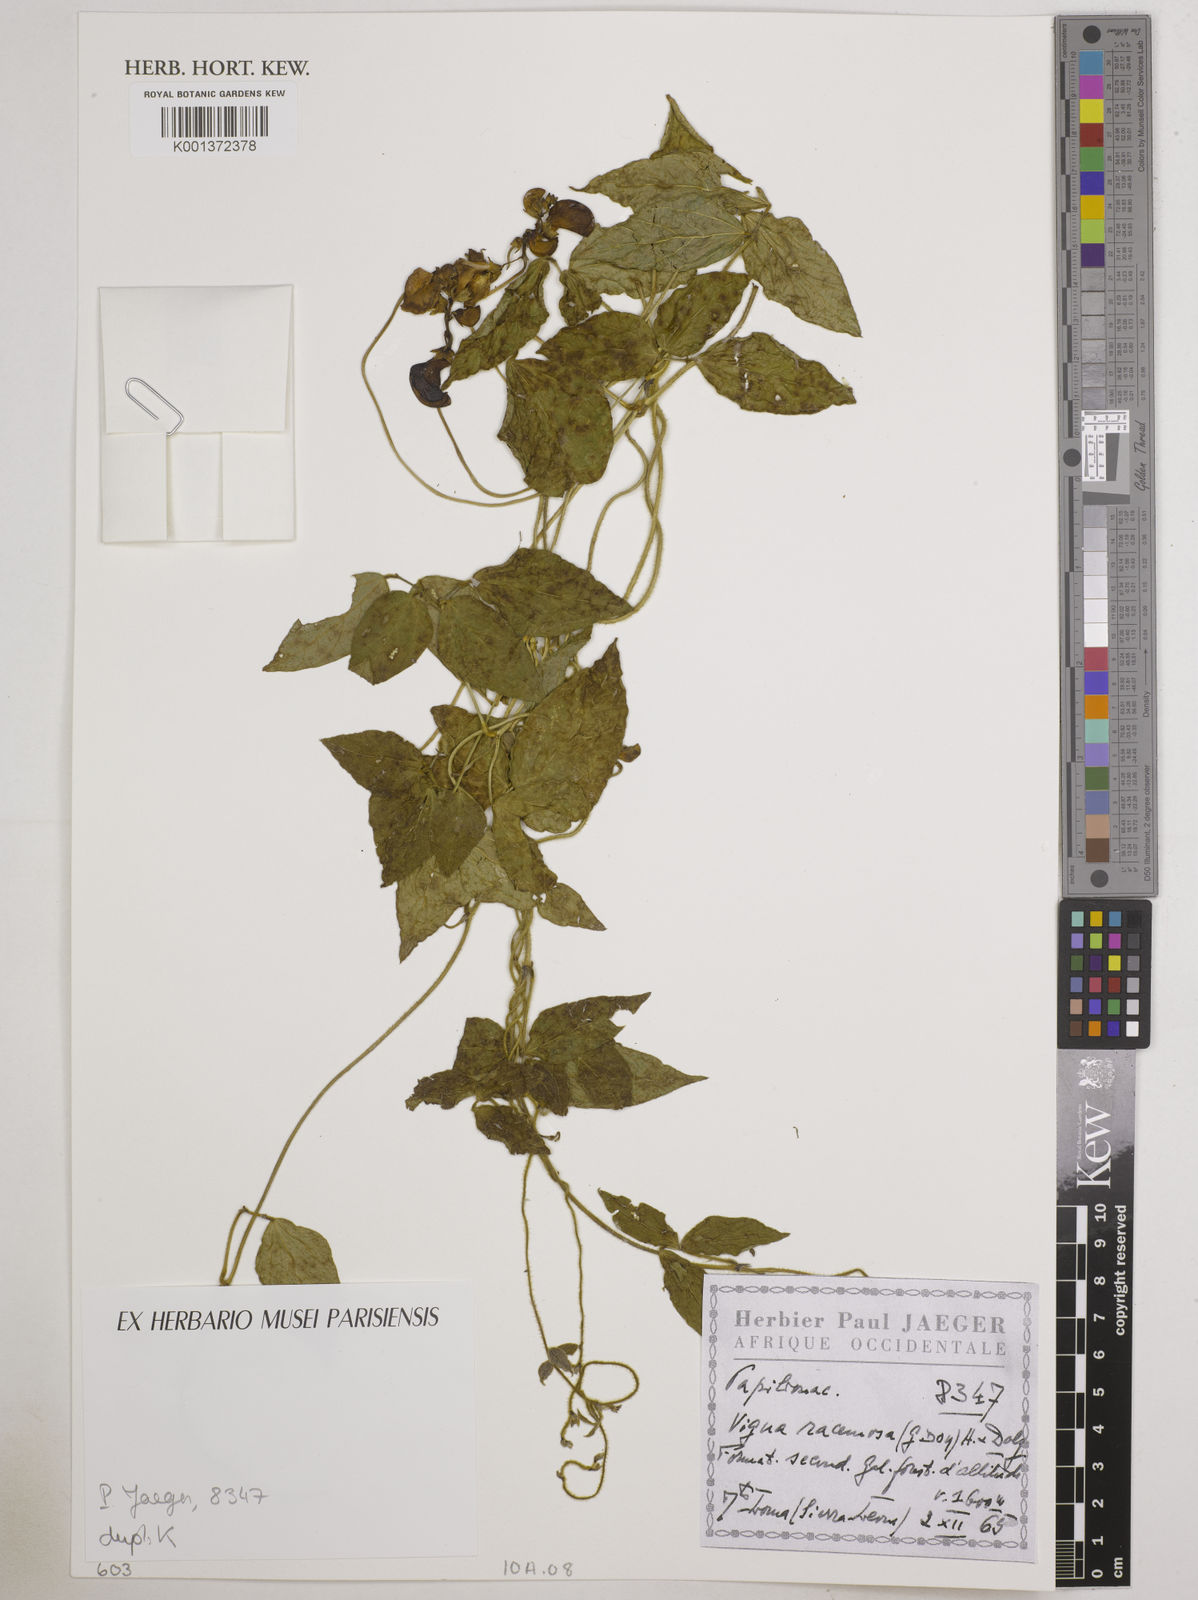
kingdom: Plantae
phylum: Tracheophyta
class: Magnoliopsida
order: Fabales
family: Fabaceae
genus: Vigna
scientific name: Vigna
